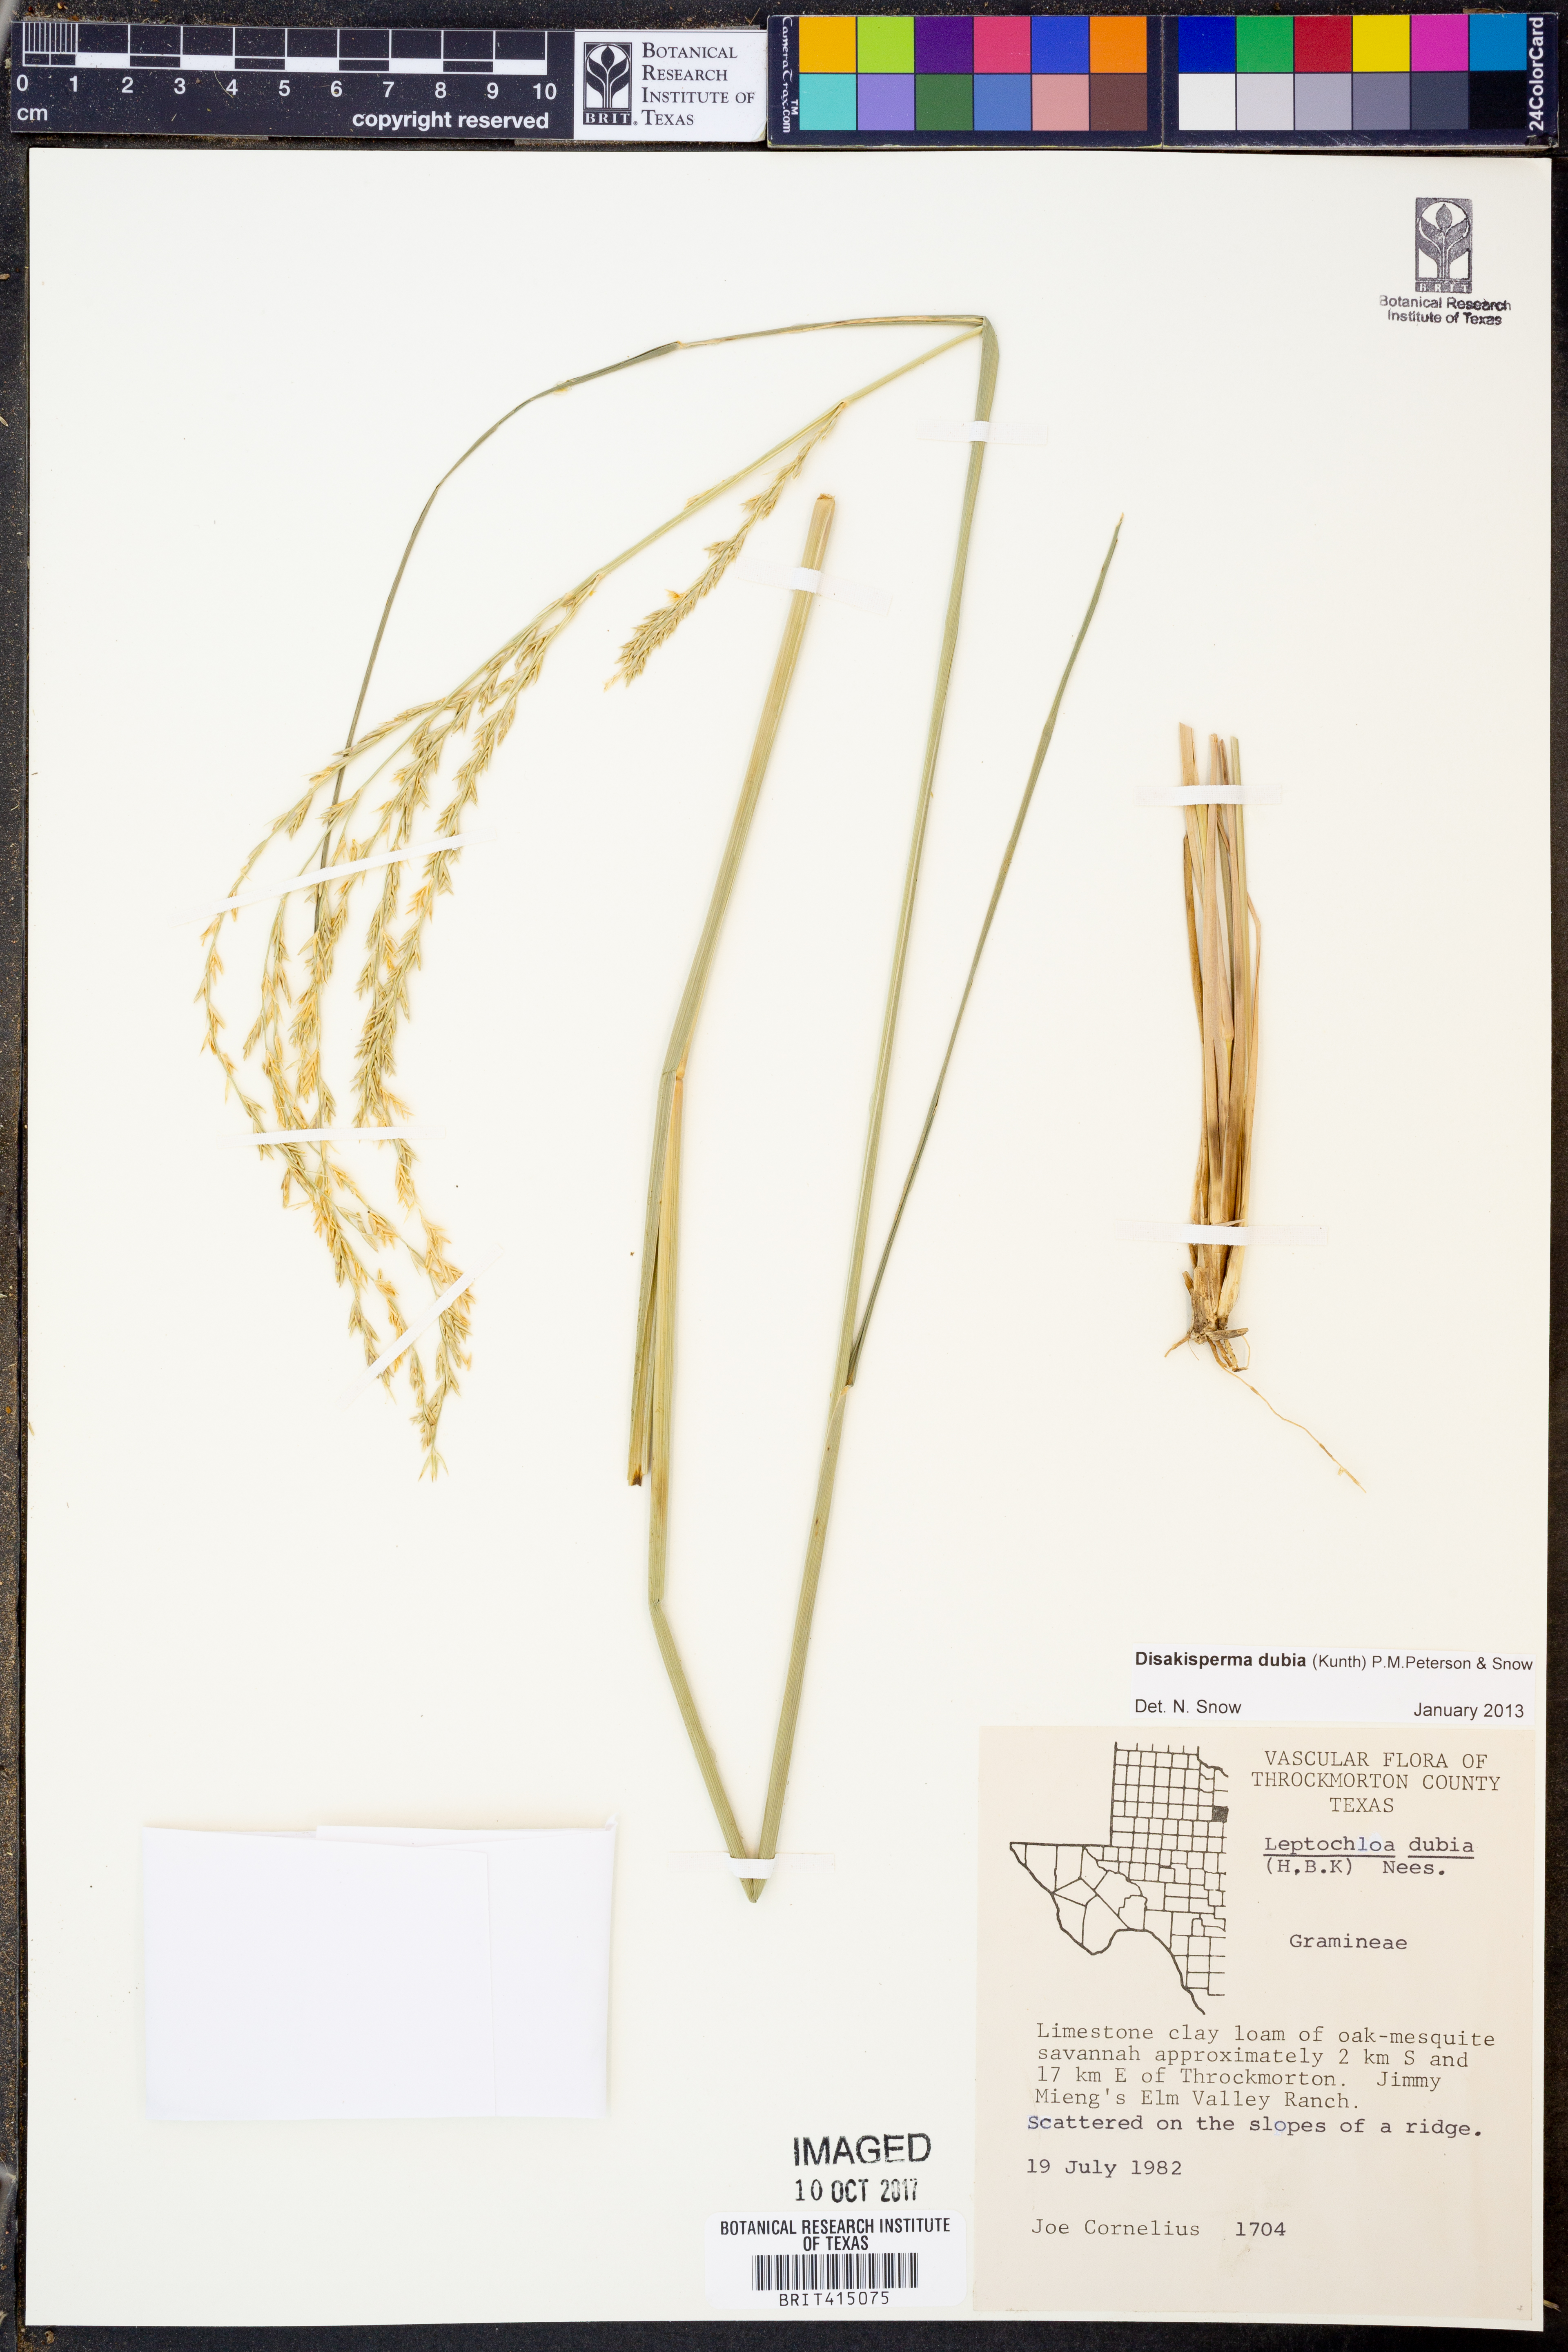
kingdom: Plantae
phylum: Tracheophyta
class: Liliopsida
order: Poales
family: Poaceae
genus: Disakisperma
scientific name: Disakisperma dubium
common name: Green sprangletop
